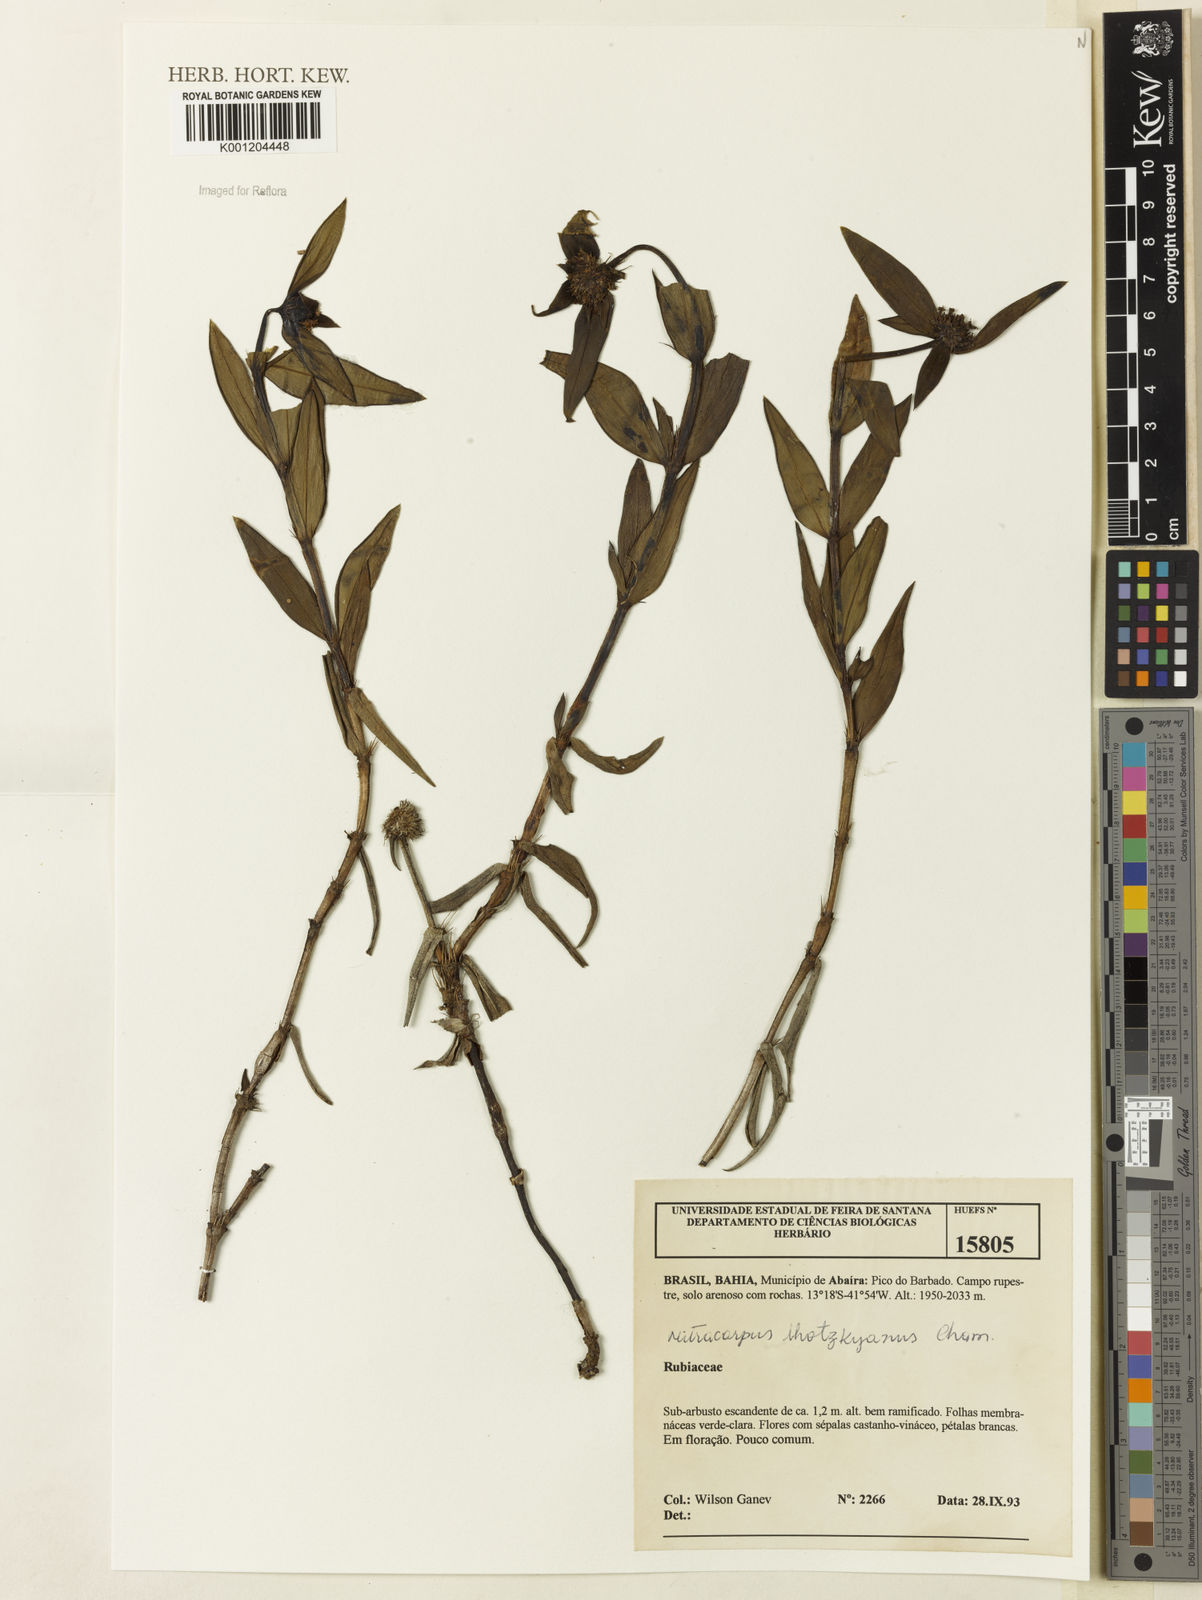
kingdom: Plantae
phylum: Tracheophyta
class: Magnoliopsida
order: Gentianales
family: Rubiaceae
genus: Mitracarpus
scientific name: Mitracarpus lhotzkyanus
